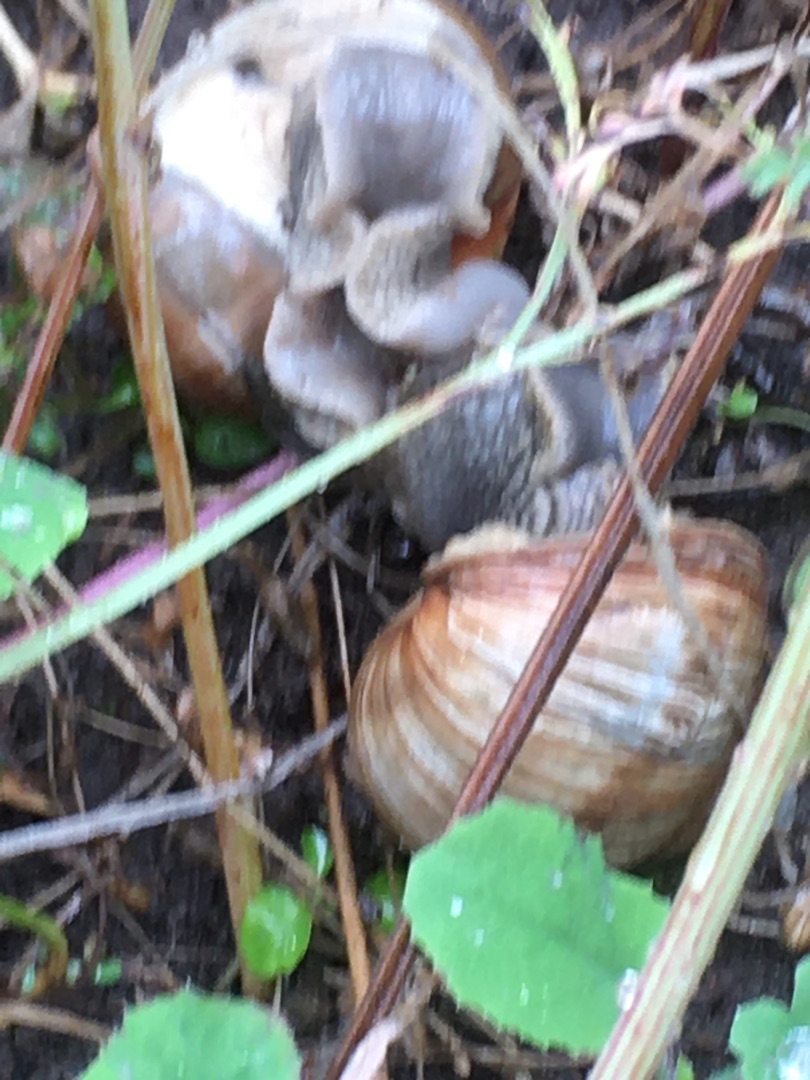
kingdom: Animalia
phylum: Mollusca
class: Gastropoda
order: Stylommatophora
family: Helicidae
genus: Helix
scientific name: Helix pomatia
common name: Vinbjergsnegl
